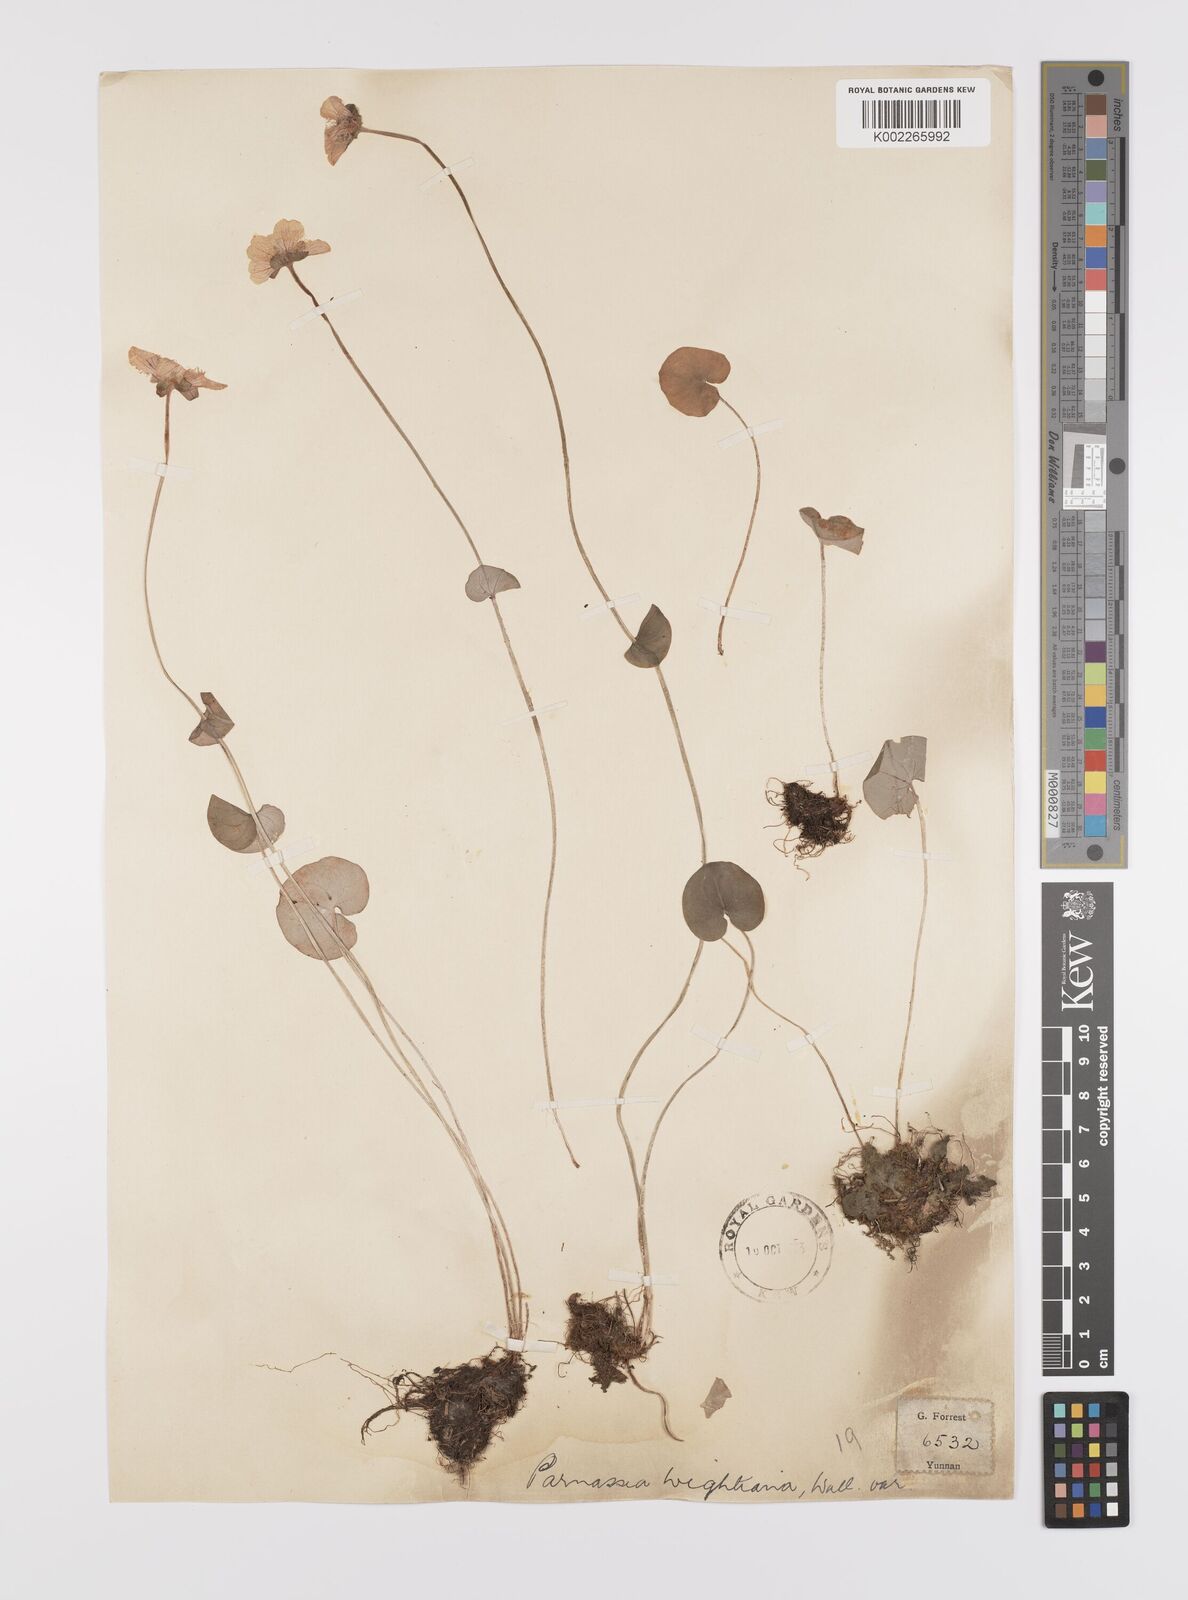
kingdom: Plantae
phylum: Tracheophyta
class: Magnoliopsida
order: Celastrales
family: Parnassiaceae
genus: Parnassia
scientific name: Parnassia wightiana
